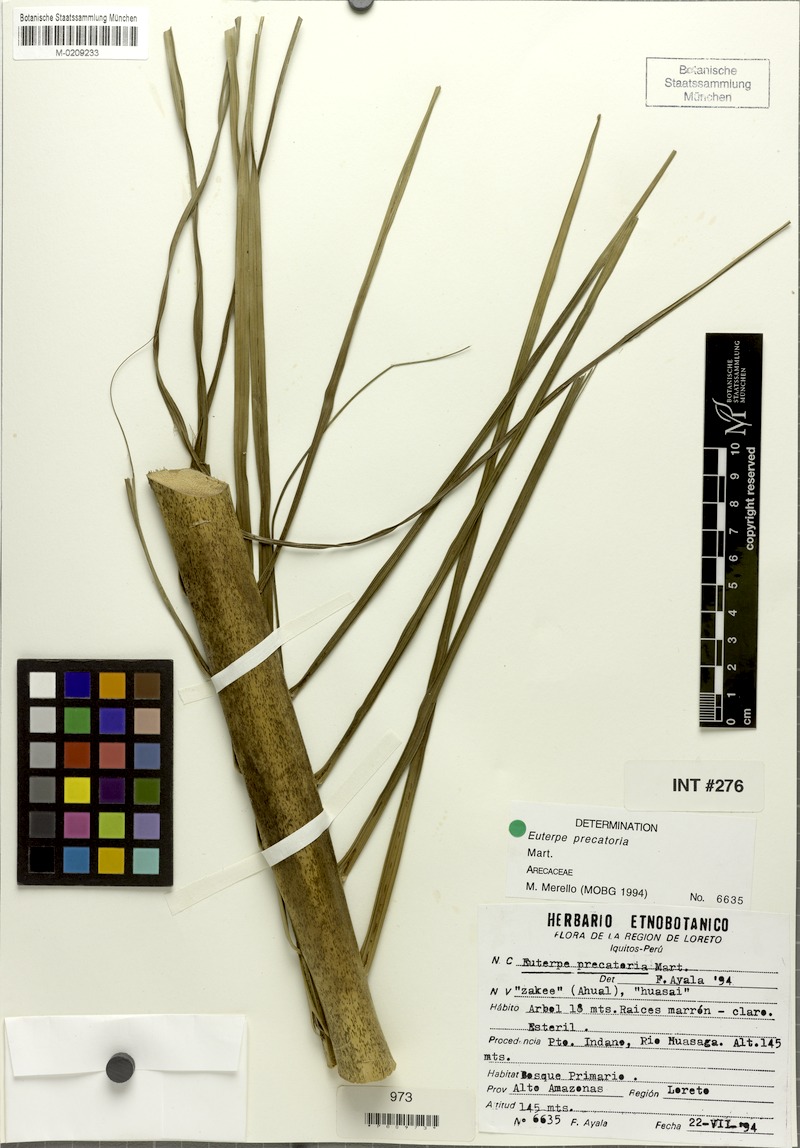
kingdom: Plantae
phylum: Tracheophyta
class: Liliopsida
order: Arecales
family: Arecaceae
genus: Euterpe
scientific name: Euterpe precatoria
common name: Mountain-cabbage
